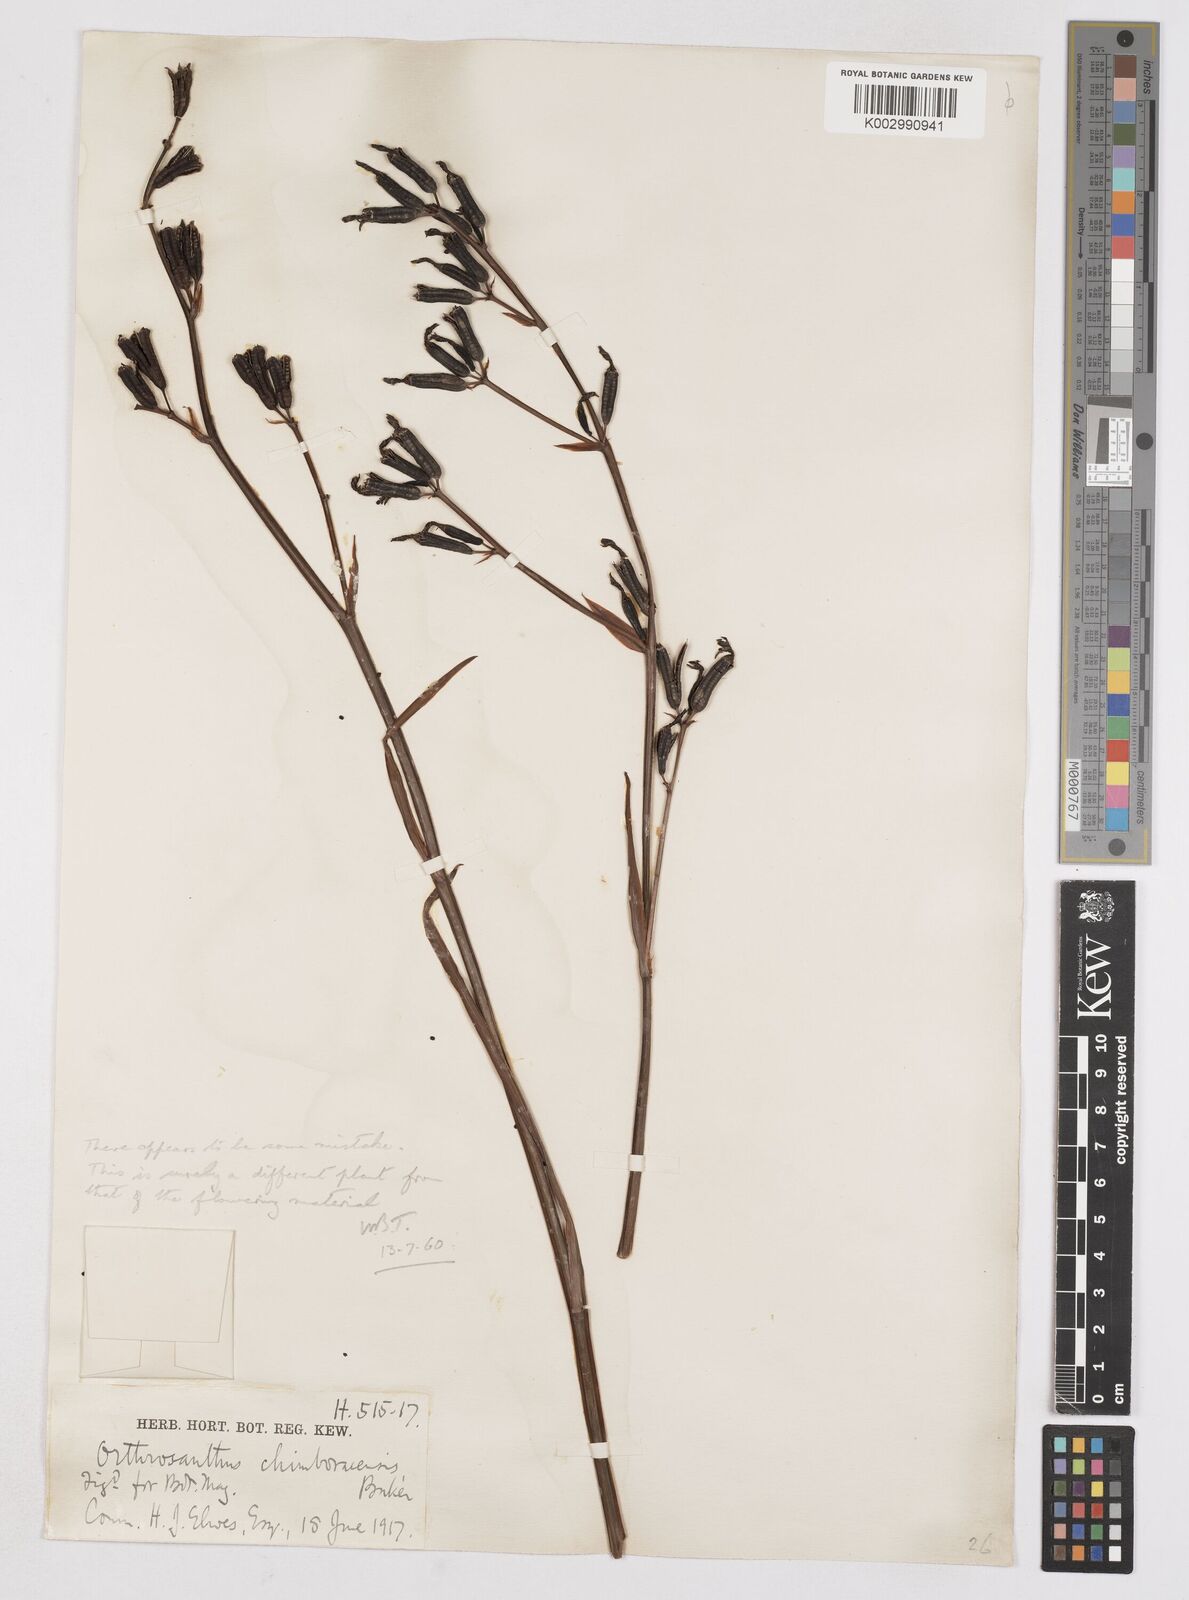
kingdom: Plantae
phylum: Tracheophyta
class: Liliopsida
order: Asparagales
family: Iridaceae
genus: Orthrosanthus
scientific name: Orthrosanthus polystachyus
